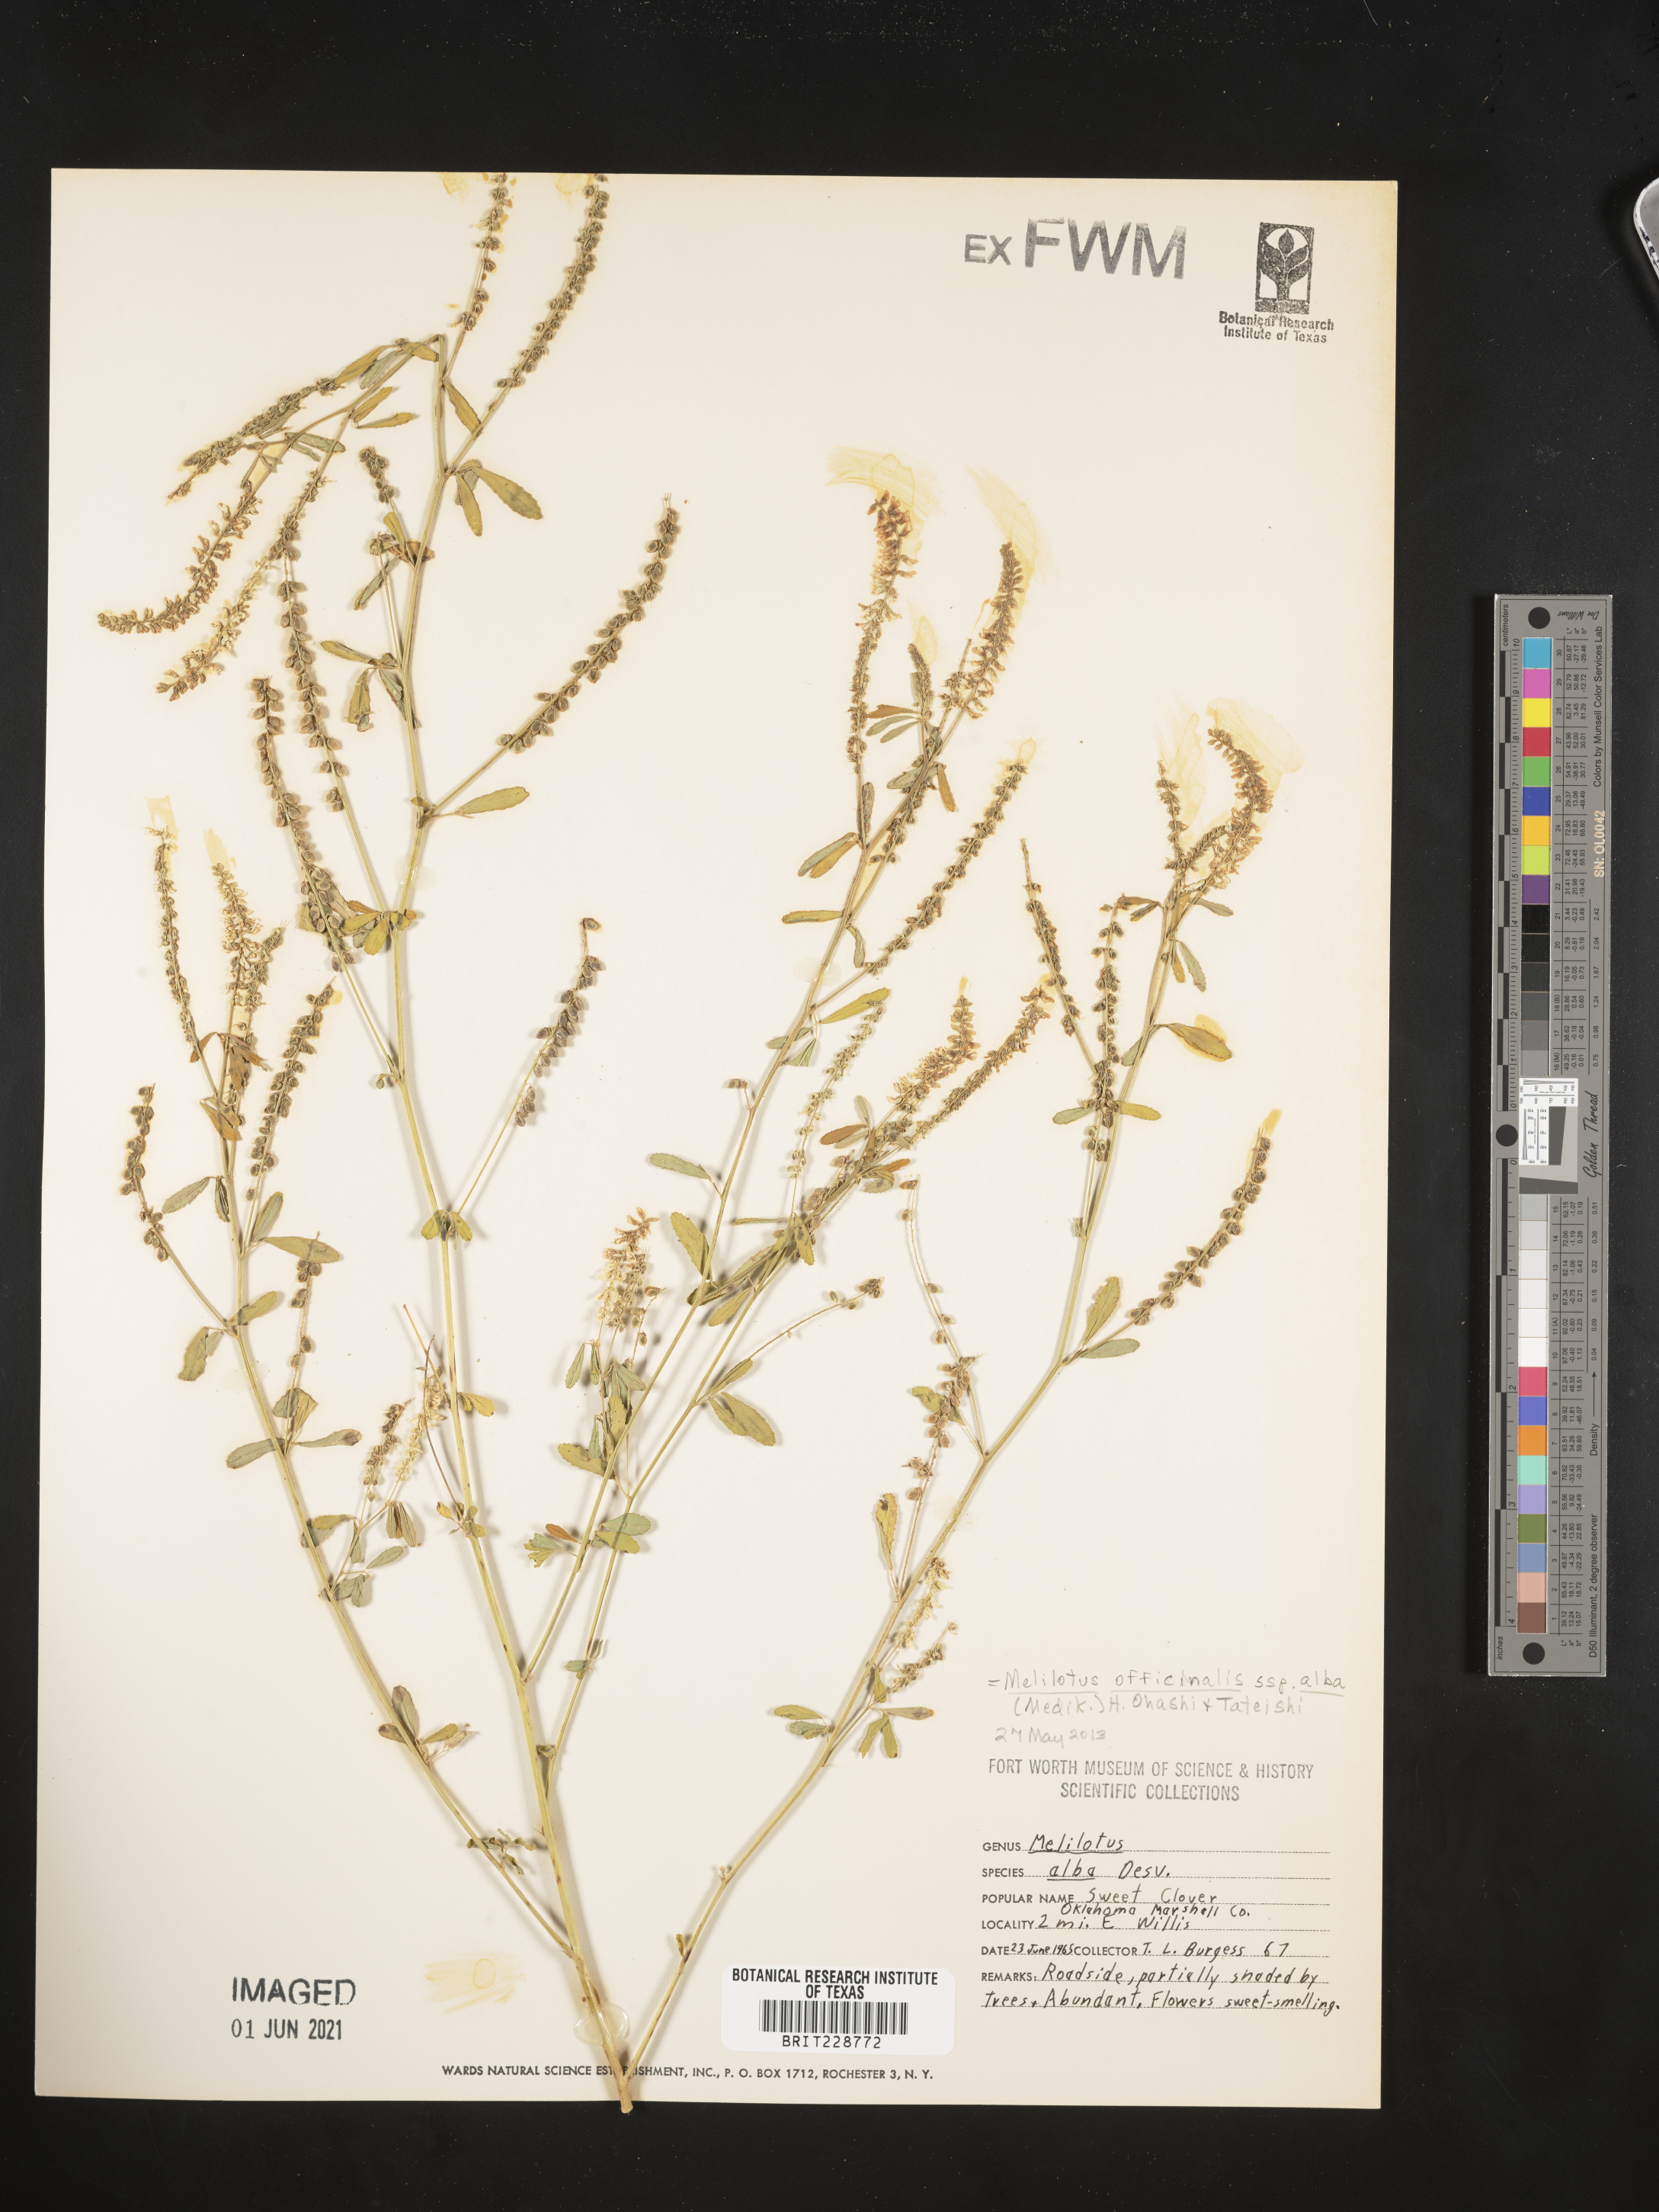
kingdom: Plantae
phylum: Tracheophyta
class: Magnoliopsida
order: Fabales
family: Fabaceae
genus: Melilotus
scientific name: Melilotus albus
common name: White melilot
